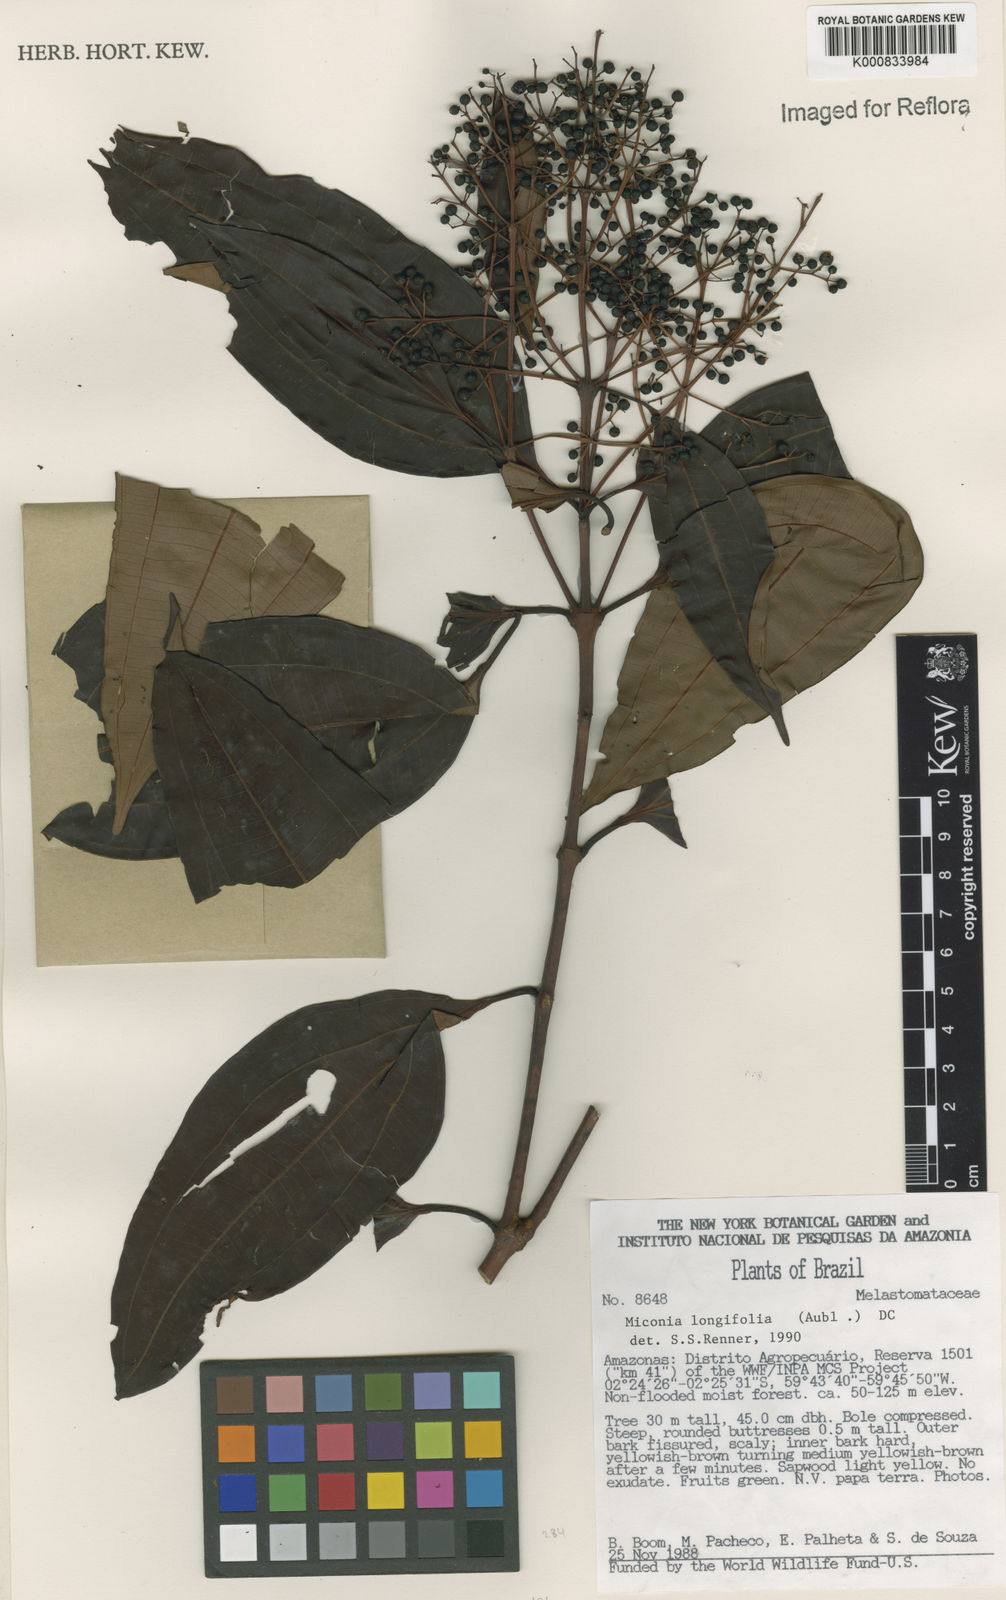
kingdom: Plantae
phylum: Tracheophyta
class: Magnoliopsida
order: Myrtales
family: Melastomataceae
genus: Miconia
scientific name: Miconia longifolia
